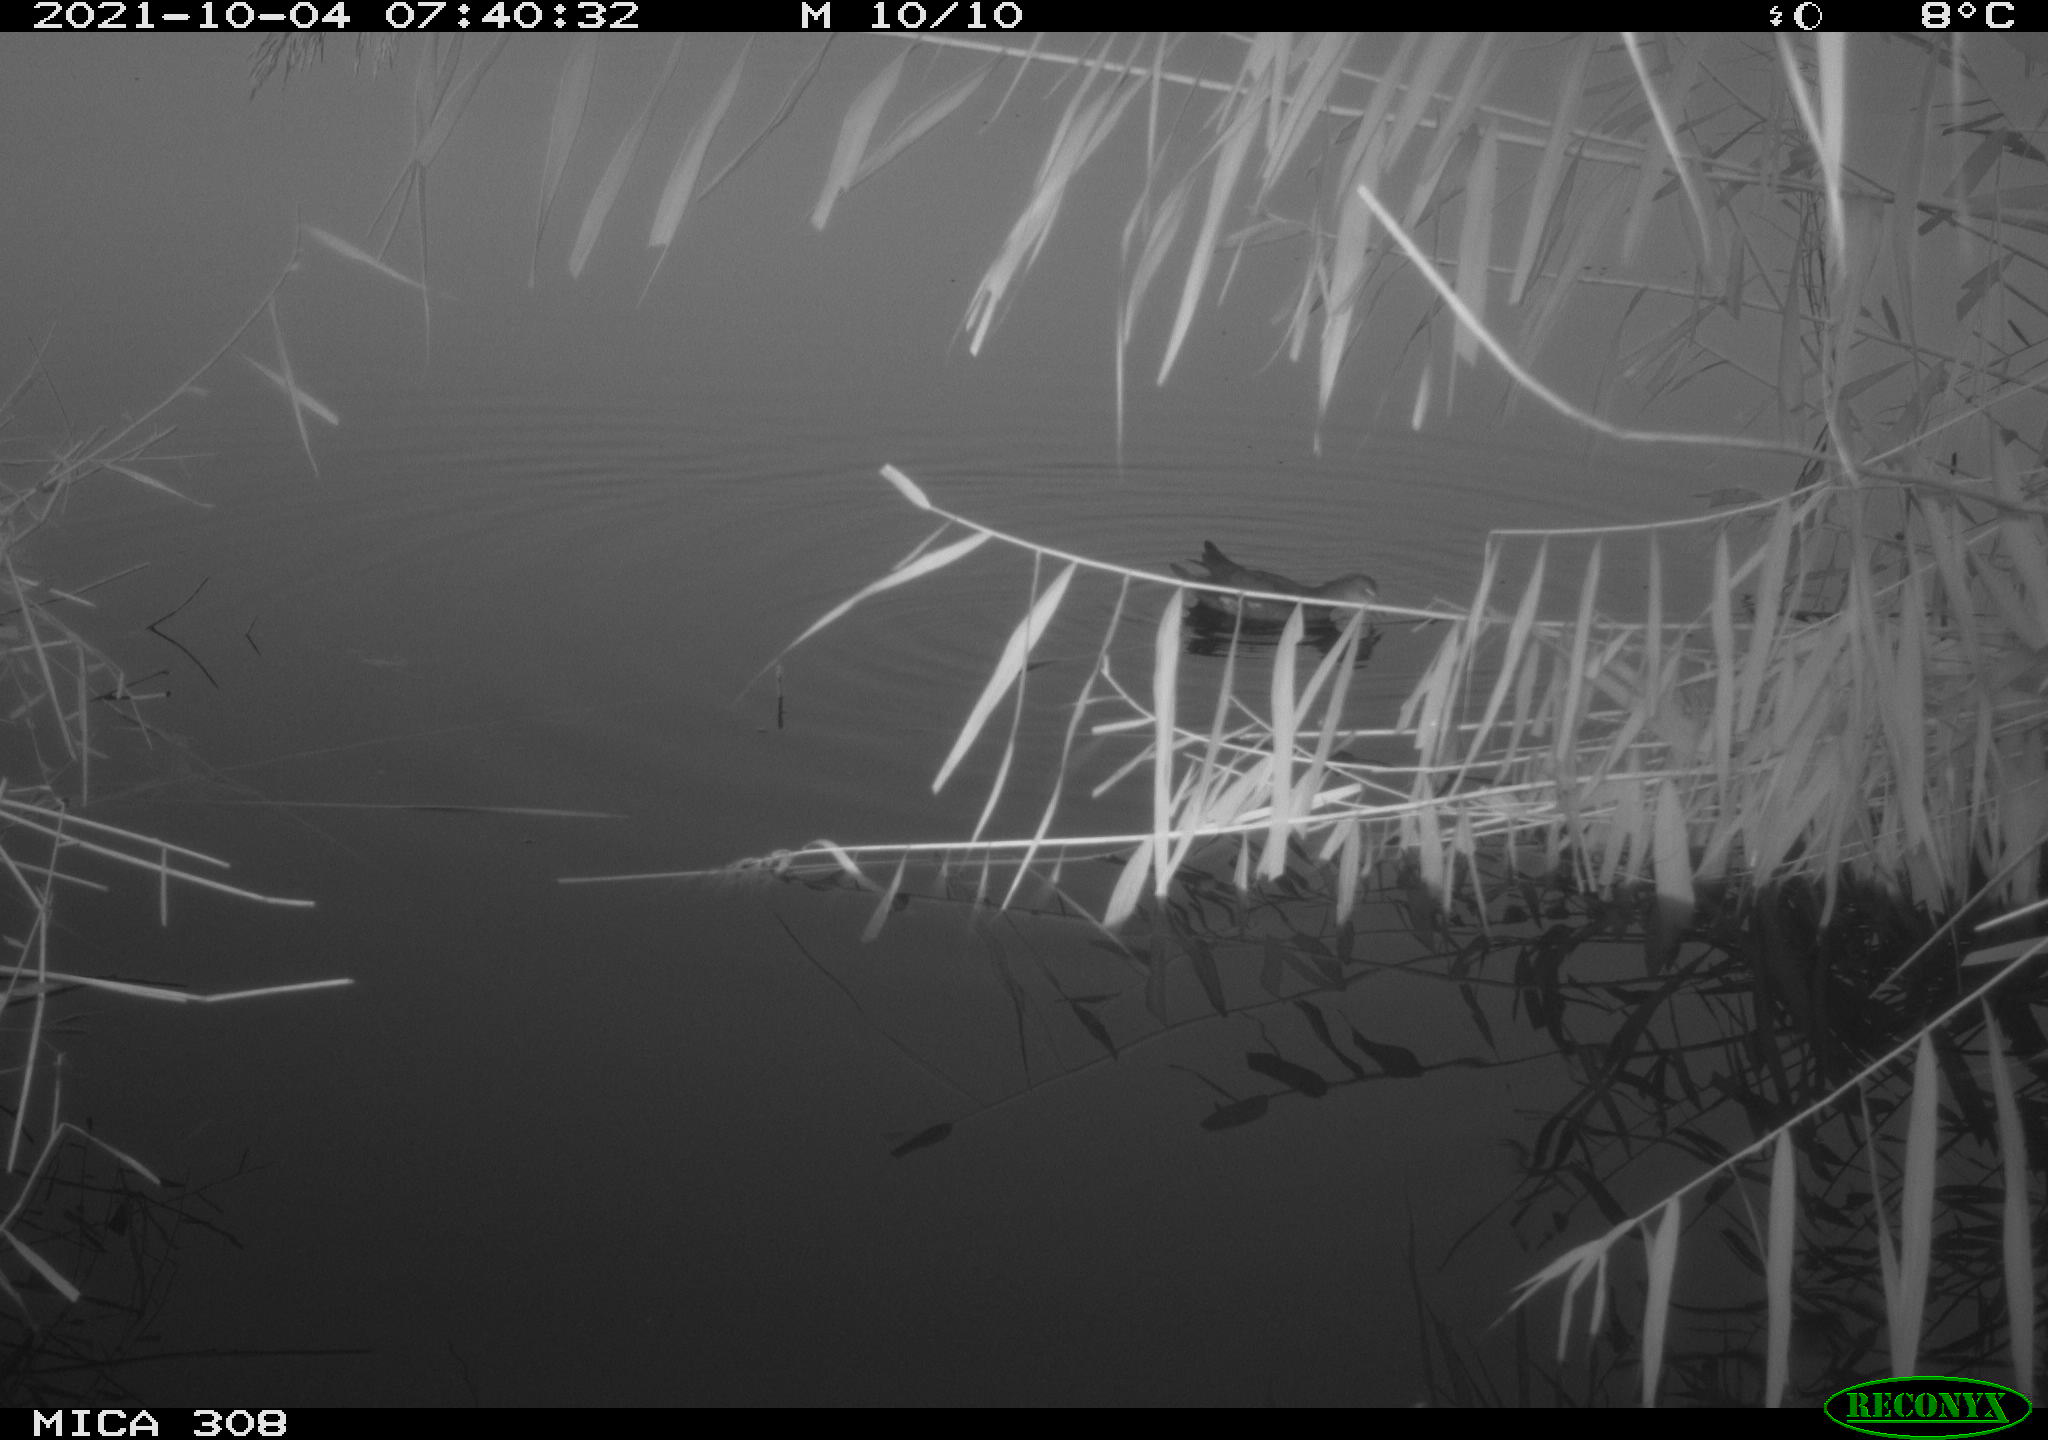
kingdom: Animalia
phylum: Chordata
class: Aves
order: Gruiformes
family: Rallidae
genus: Gallinula
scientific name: Gallinula chloropus
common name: Common moorhen
